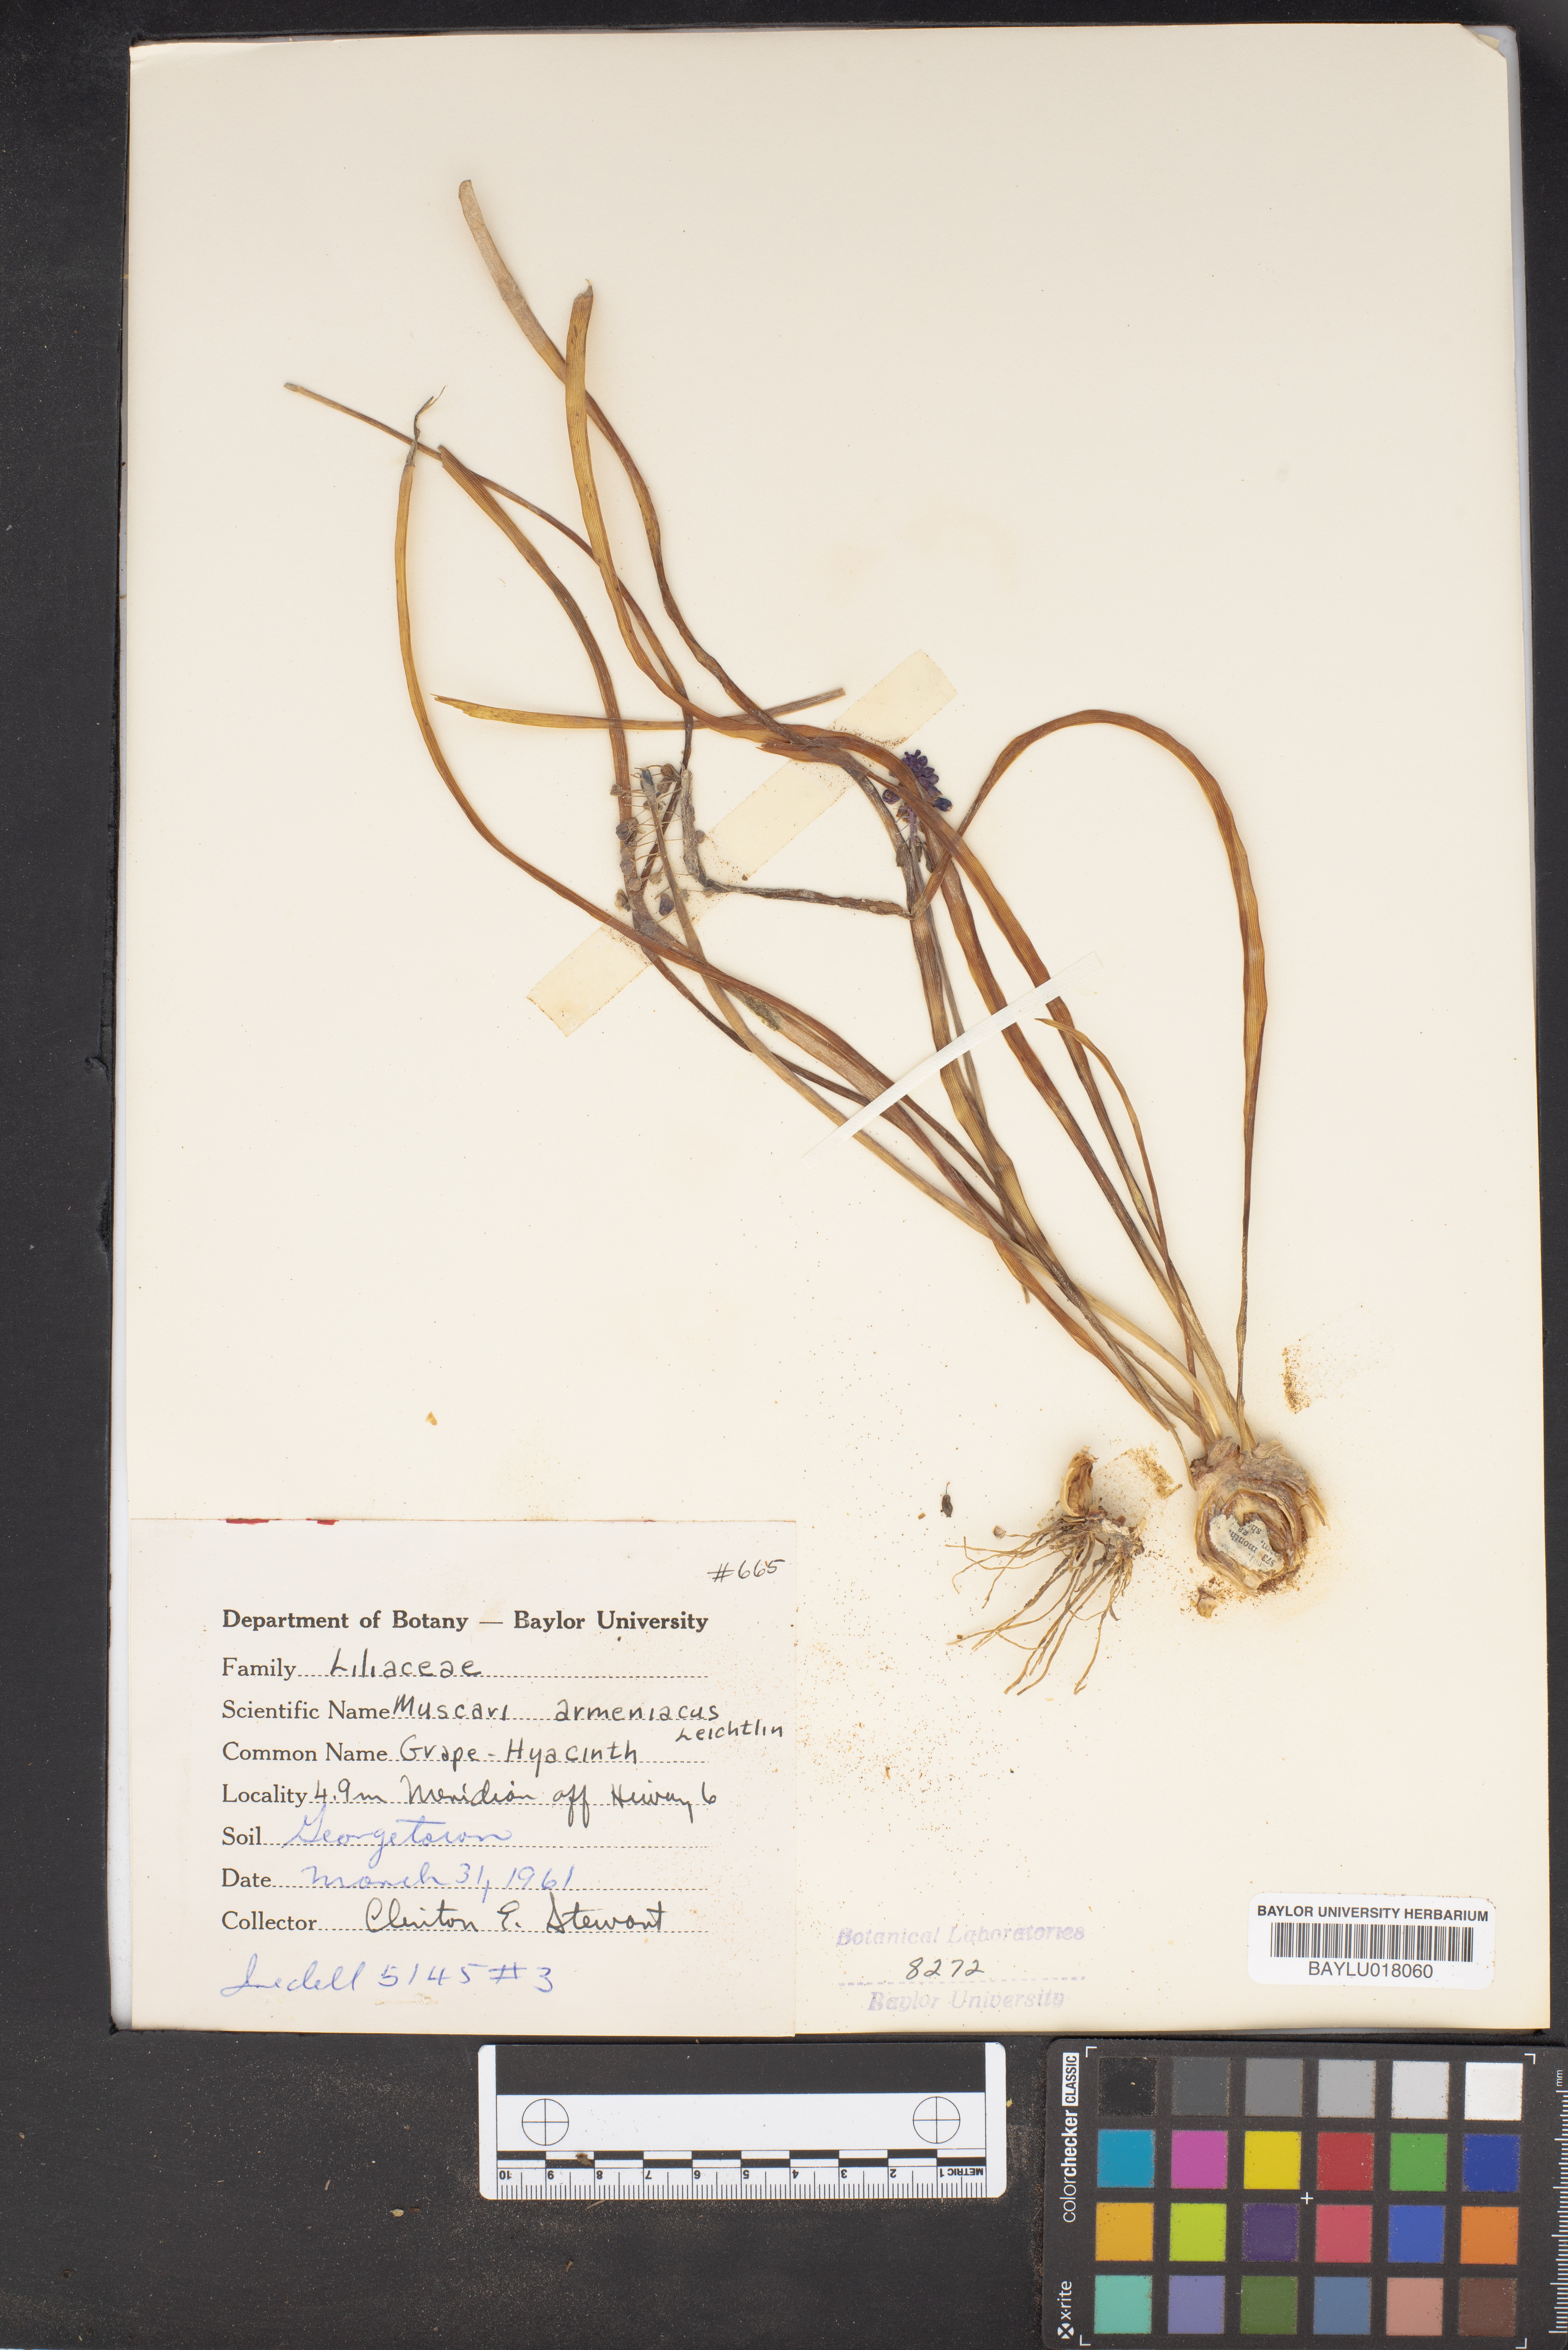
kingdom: Plantae
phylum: Tracheophyta
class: Liliopsida
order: Asparagales
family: Asparagaceae
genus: Muscari
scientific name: Muscari armeniacum
